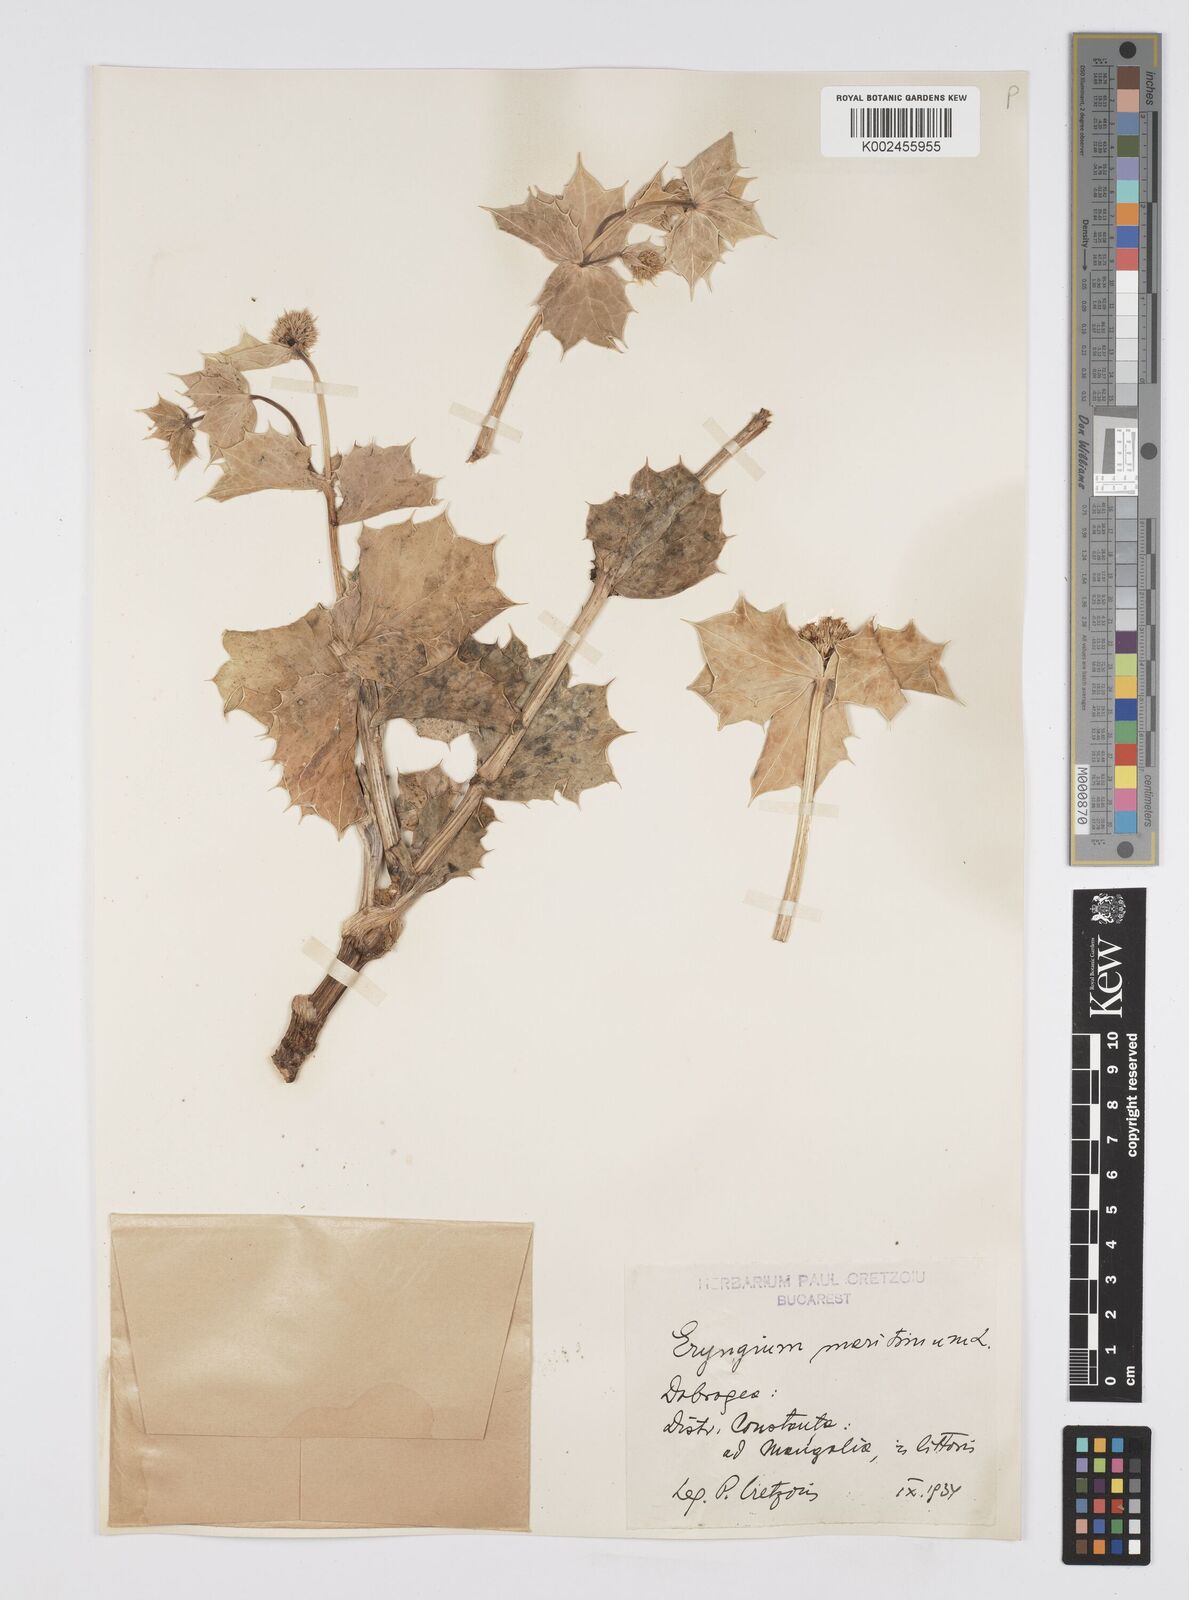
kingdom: Plantae
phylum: Tracheophyta
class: Magnoliopsida
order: Apiales
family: Apiaceae
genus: Eryngium
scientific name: Eryngium maritimum
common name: Sea-holly
